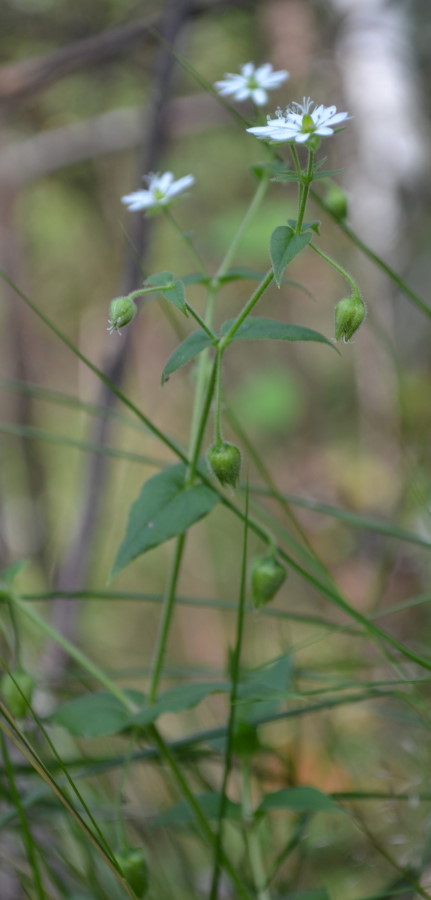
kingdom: Plantae
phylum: Tracheophyta
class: Magnoliopsida
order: Caryophyllales
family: Caryophyllaceae
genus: Stellaria
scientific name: Stellaria nemorum
